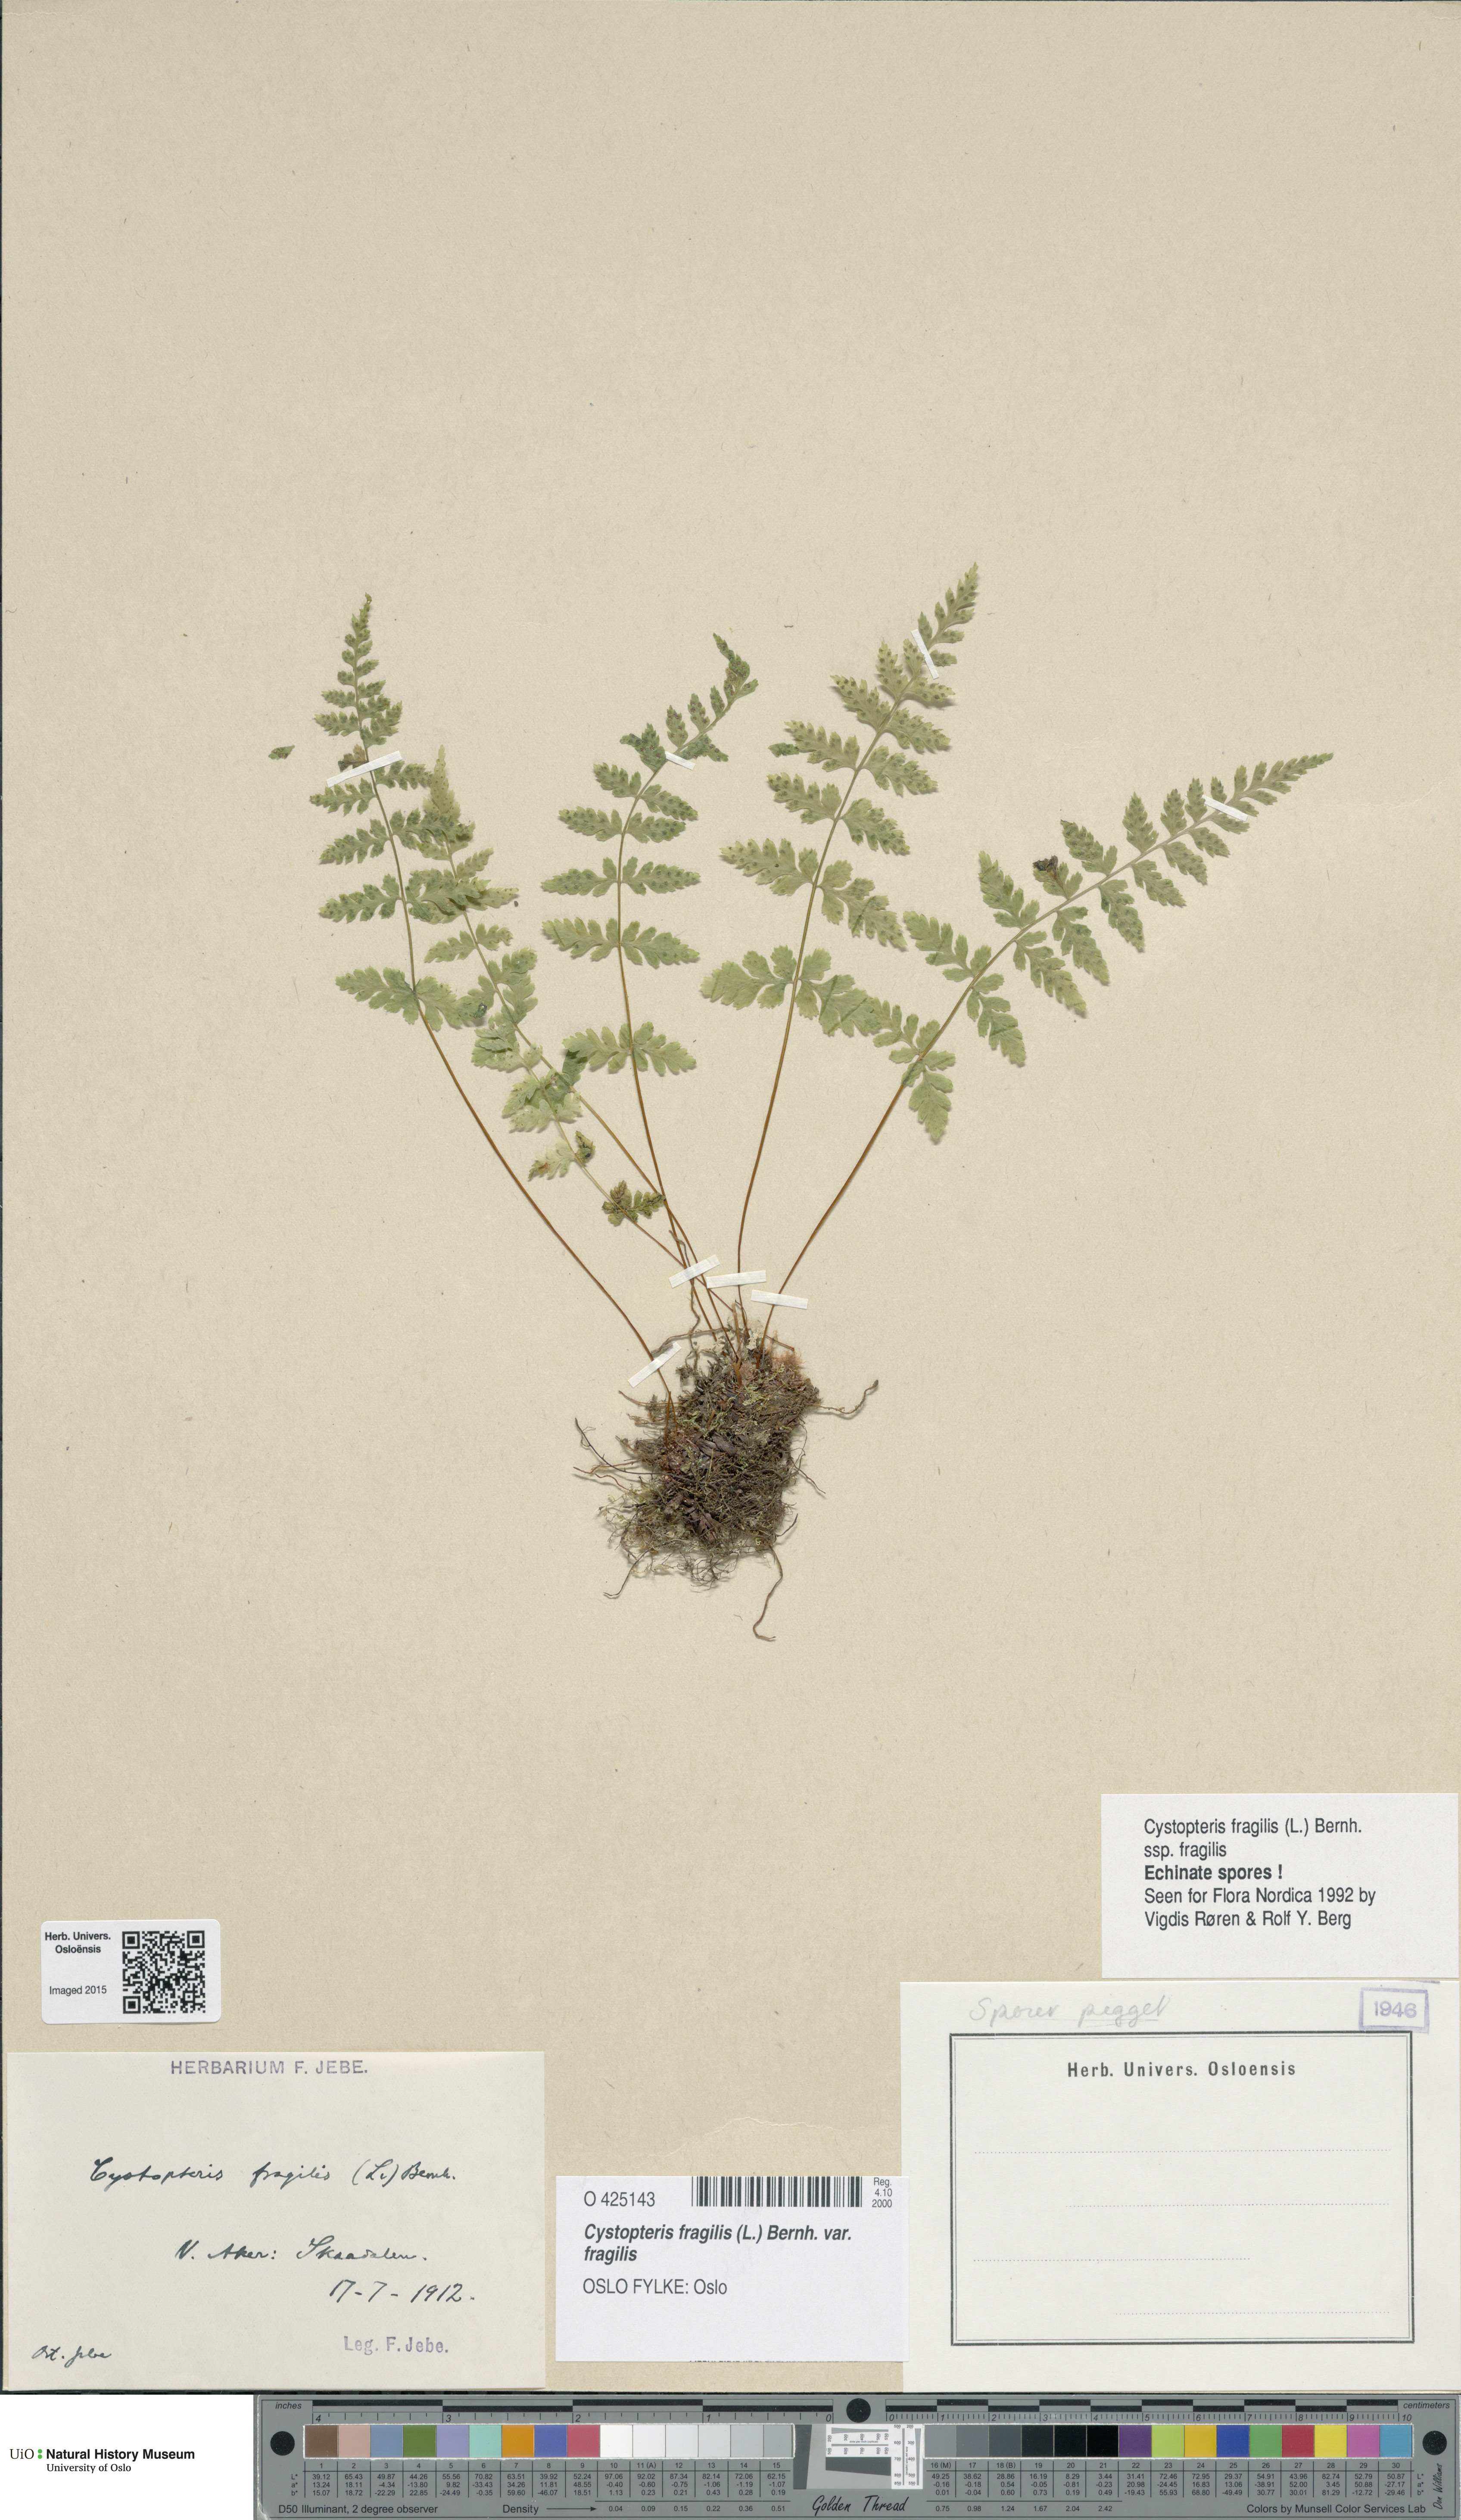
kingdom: Plantae
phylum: Tracheophyta
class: Polypodiopsida
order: Polypodiales
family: Cystopteridaceae
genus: Cystopteris
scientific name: Cystopteris fragilis
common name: Brittle bladder fern
